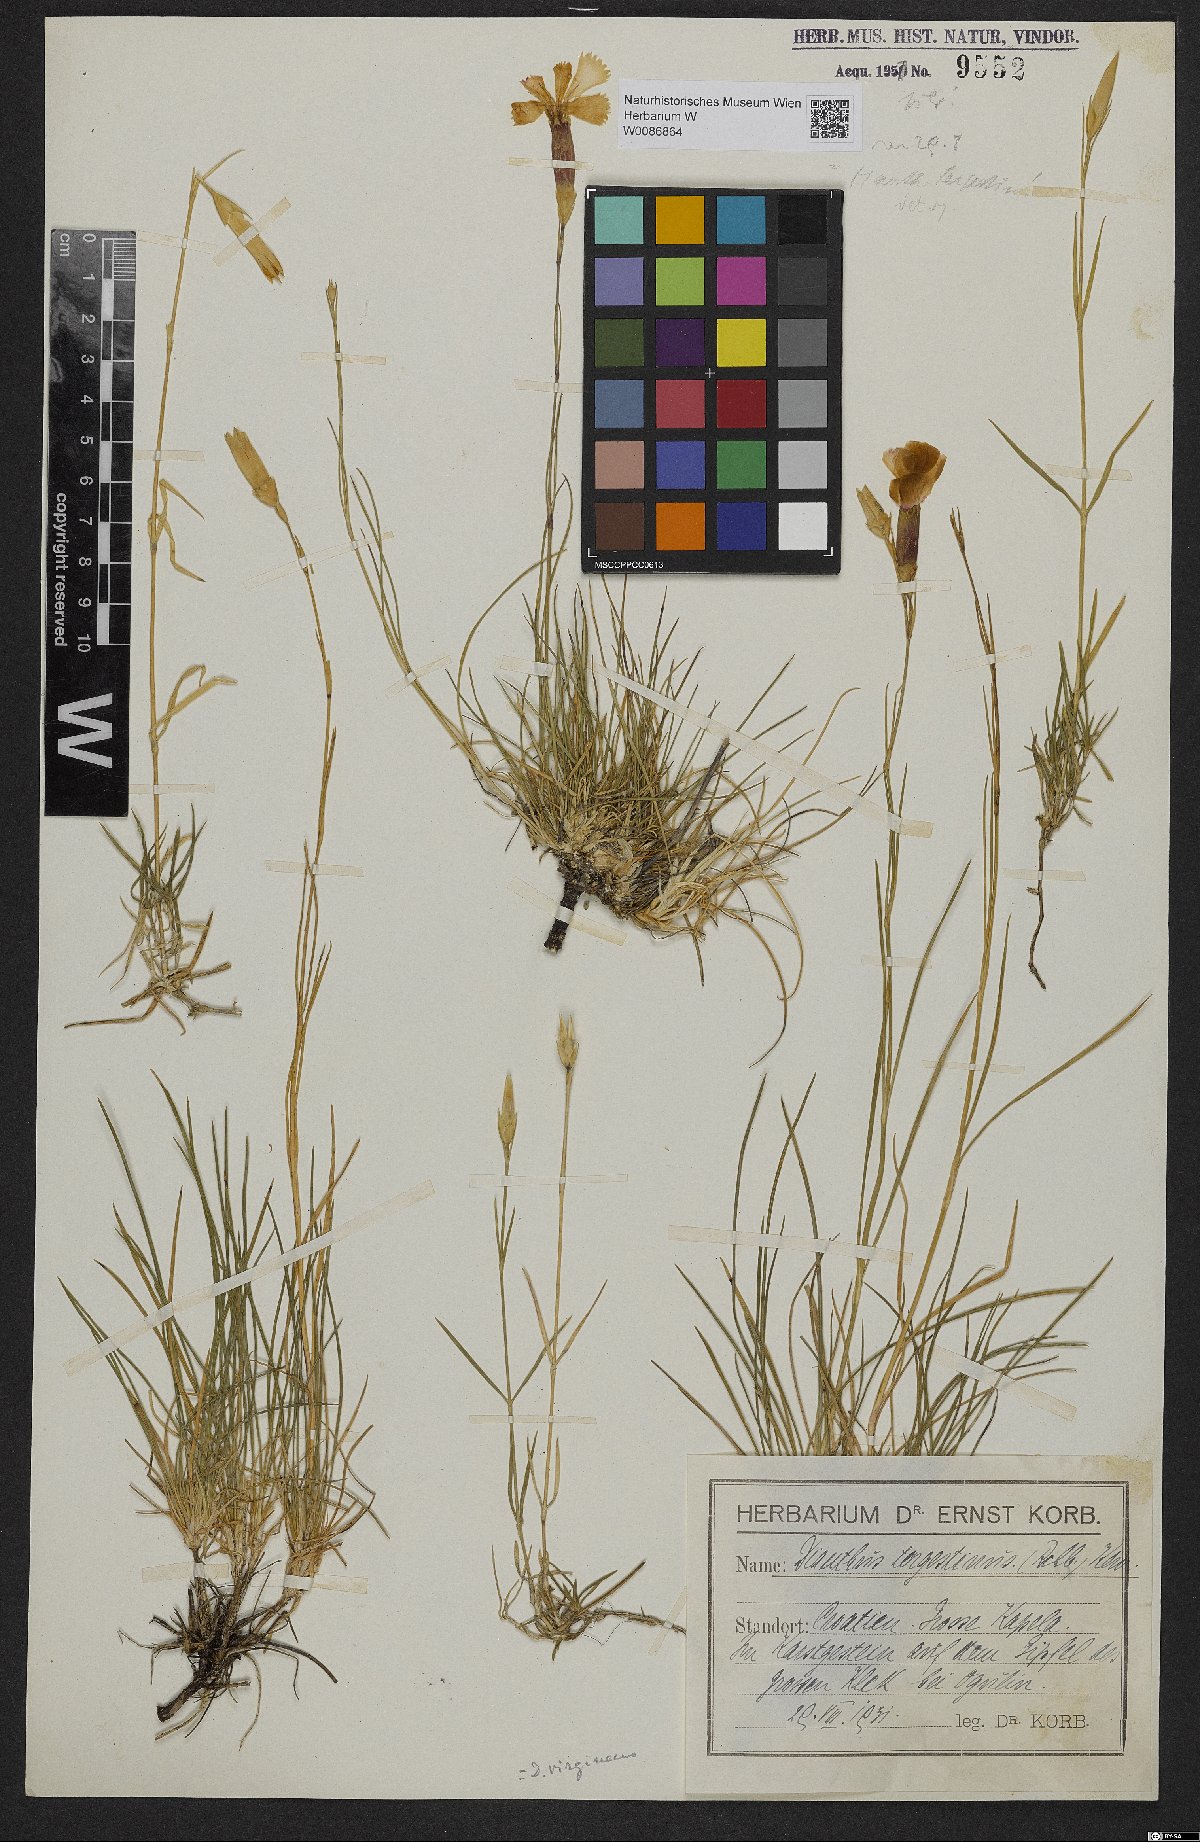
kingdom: Plantae
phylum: Tracheophyta
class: Magnoliopsida
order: Caryophyllales
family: Caryophyllaceae
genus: Dianthus
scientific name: Dianthus sylvestris
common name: Wood pink
